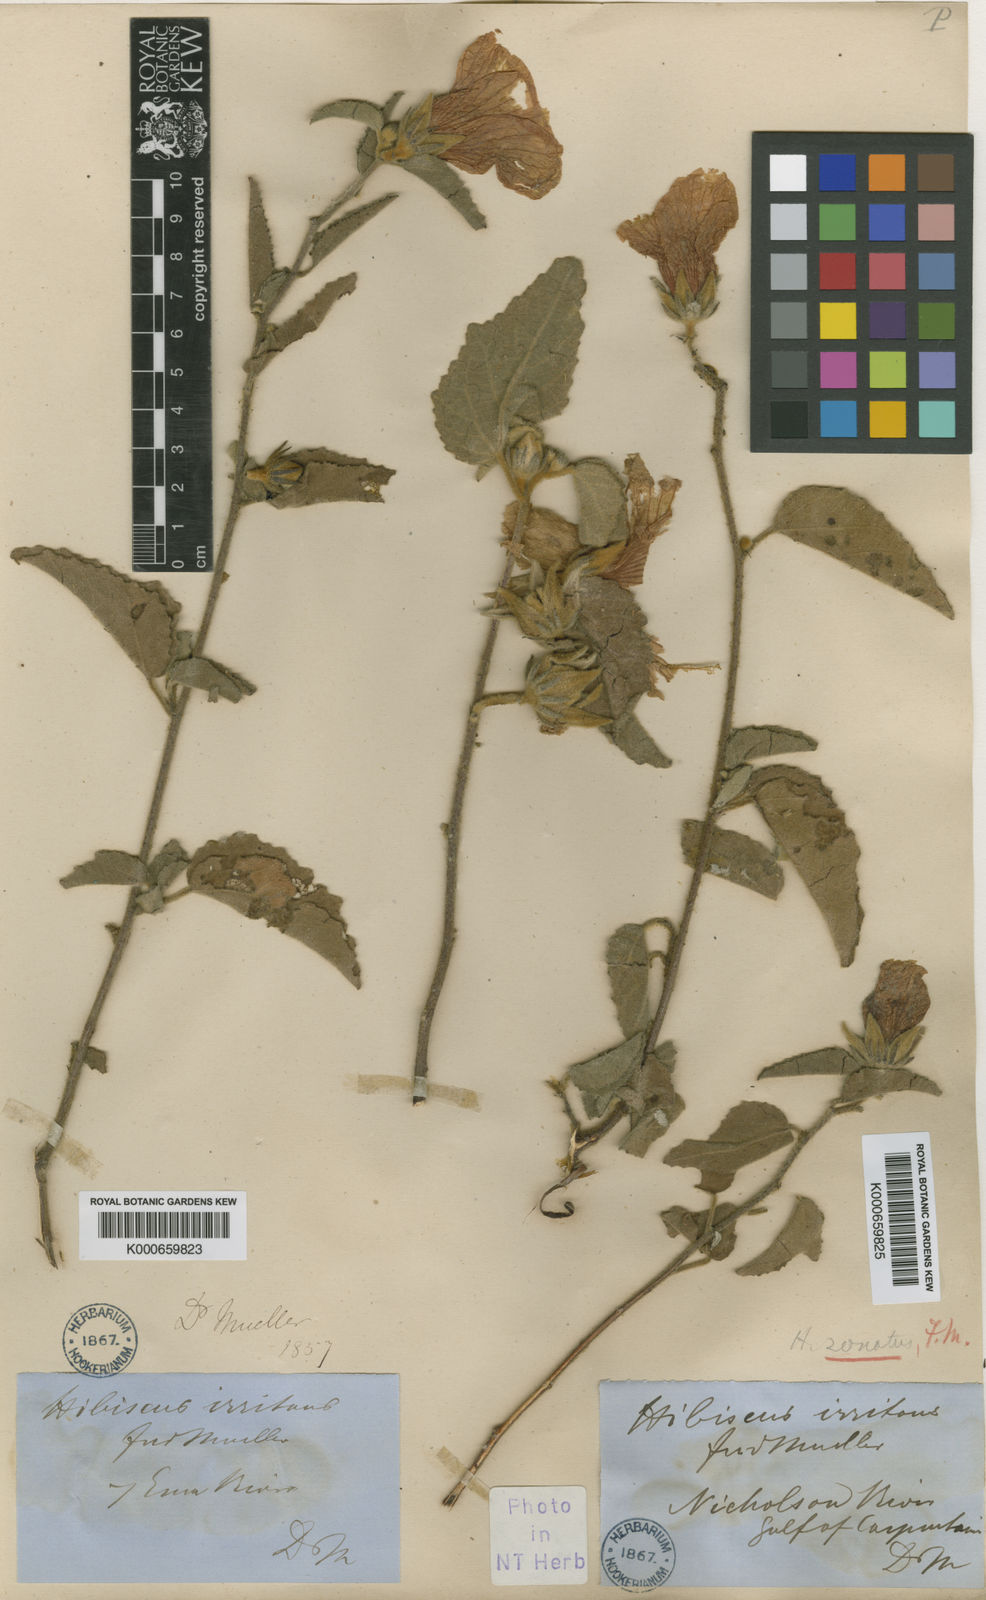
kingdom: Plantae
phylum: Tracheophyta
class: Magnoliopsida
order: Malvales
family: Malvaceae
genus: Hibiscus
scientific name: Hibiscus zonatus
